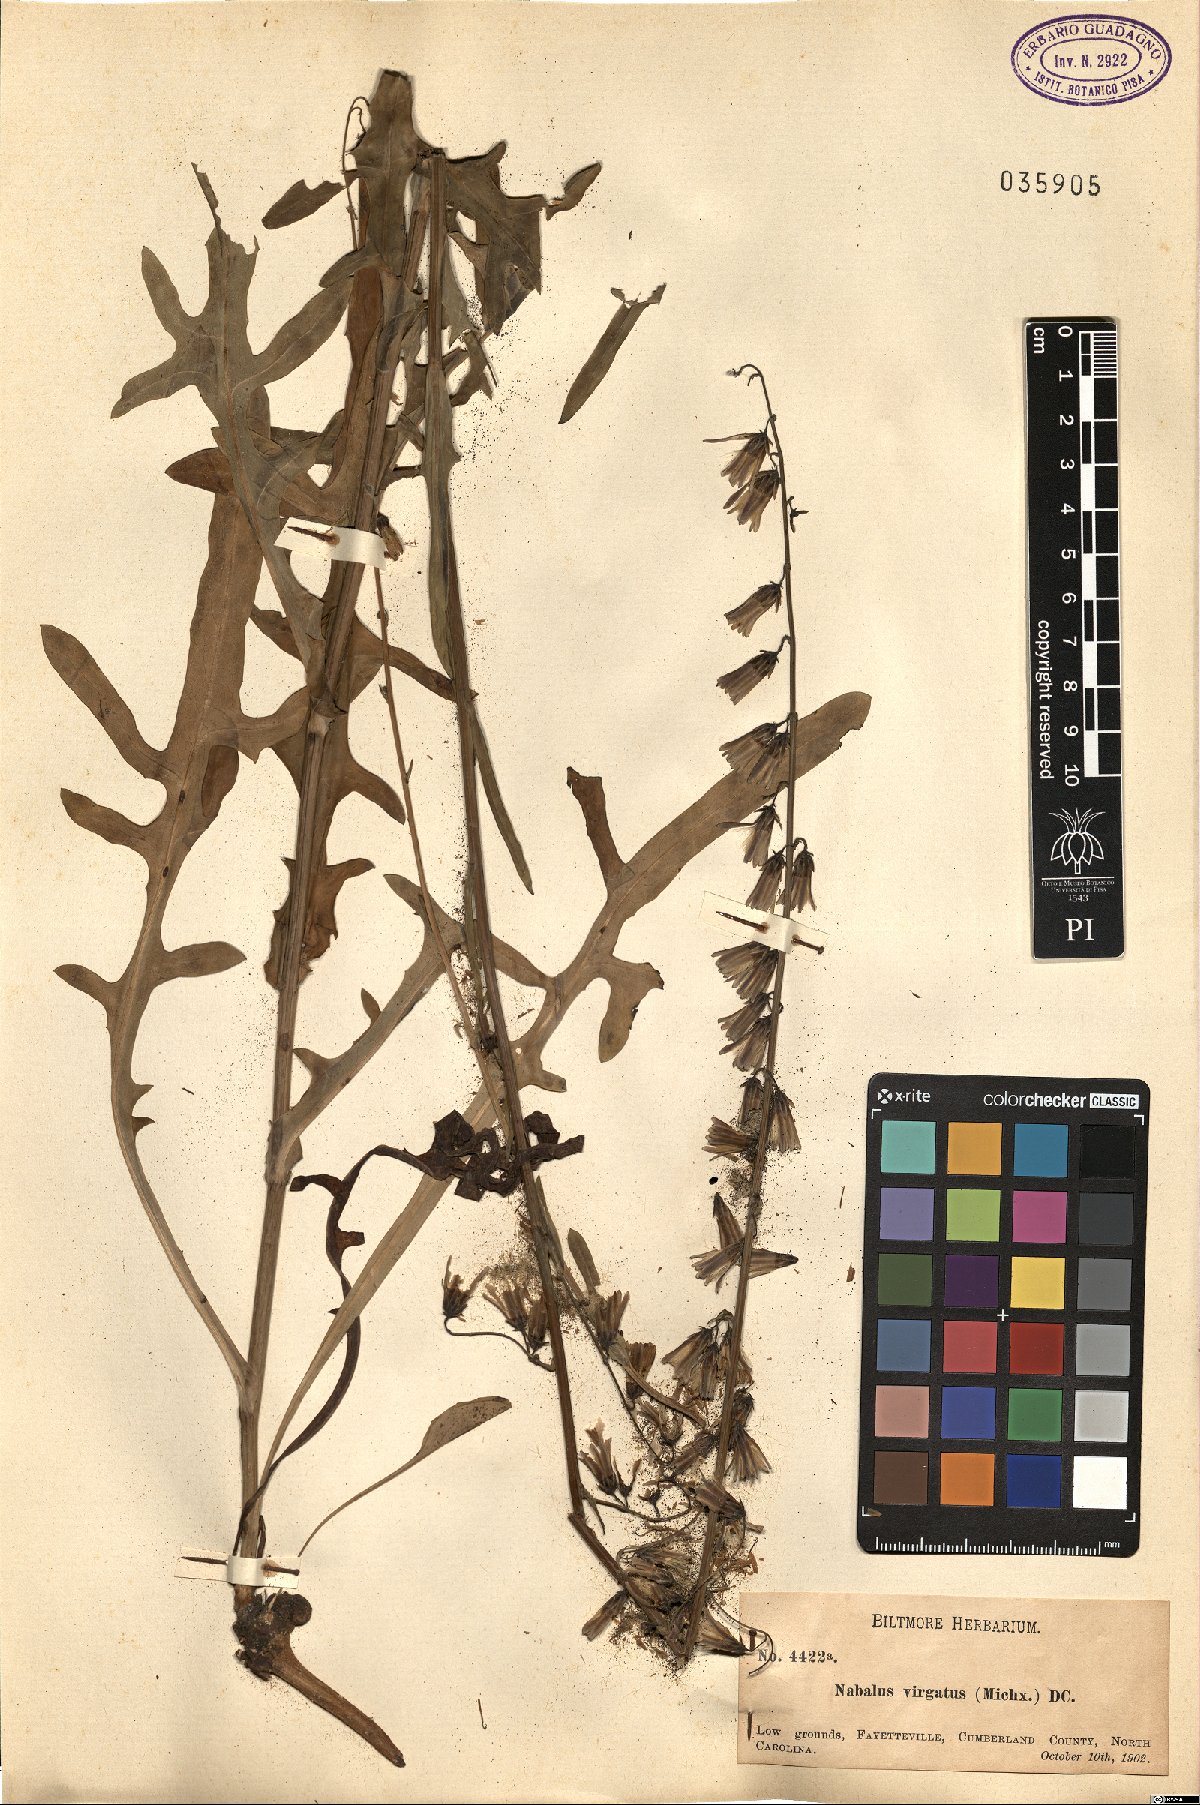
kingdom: Plantae
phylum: Tracheophyta
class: Magnoliopsida
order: Asterales
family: Asteraceae
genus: Nabalus
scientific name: Nabalus autumnalis
